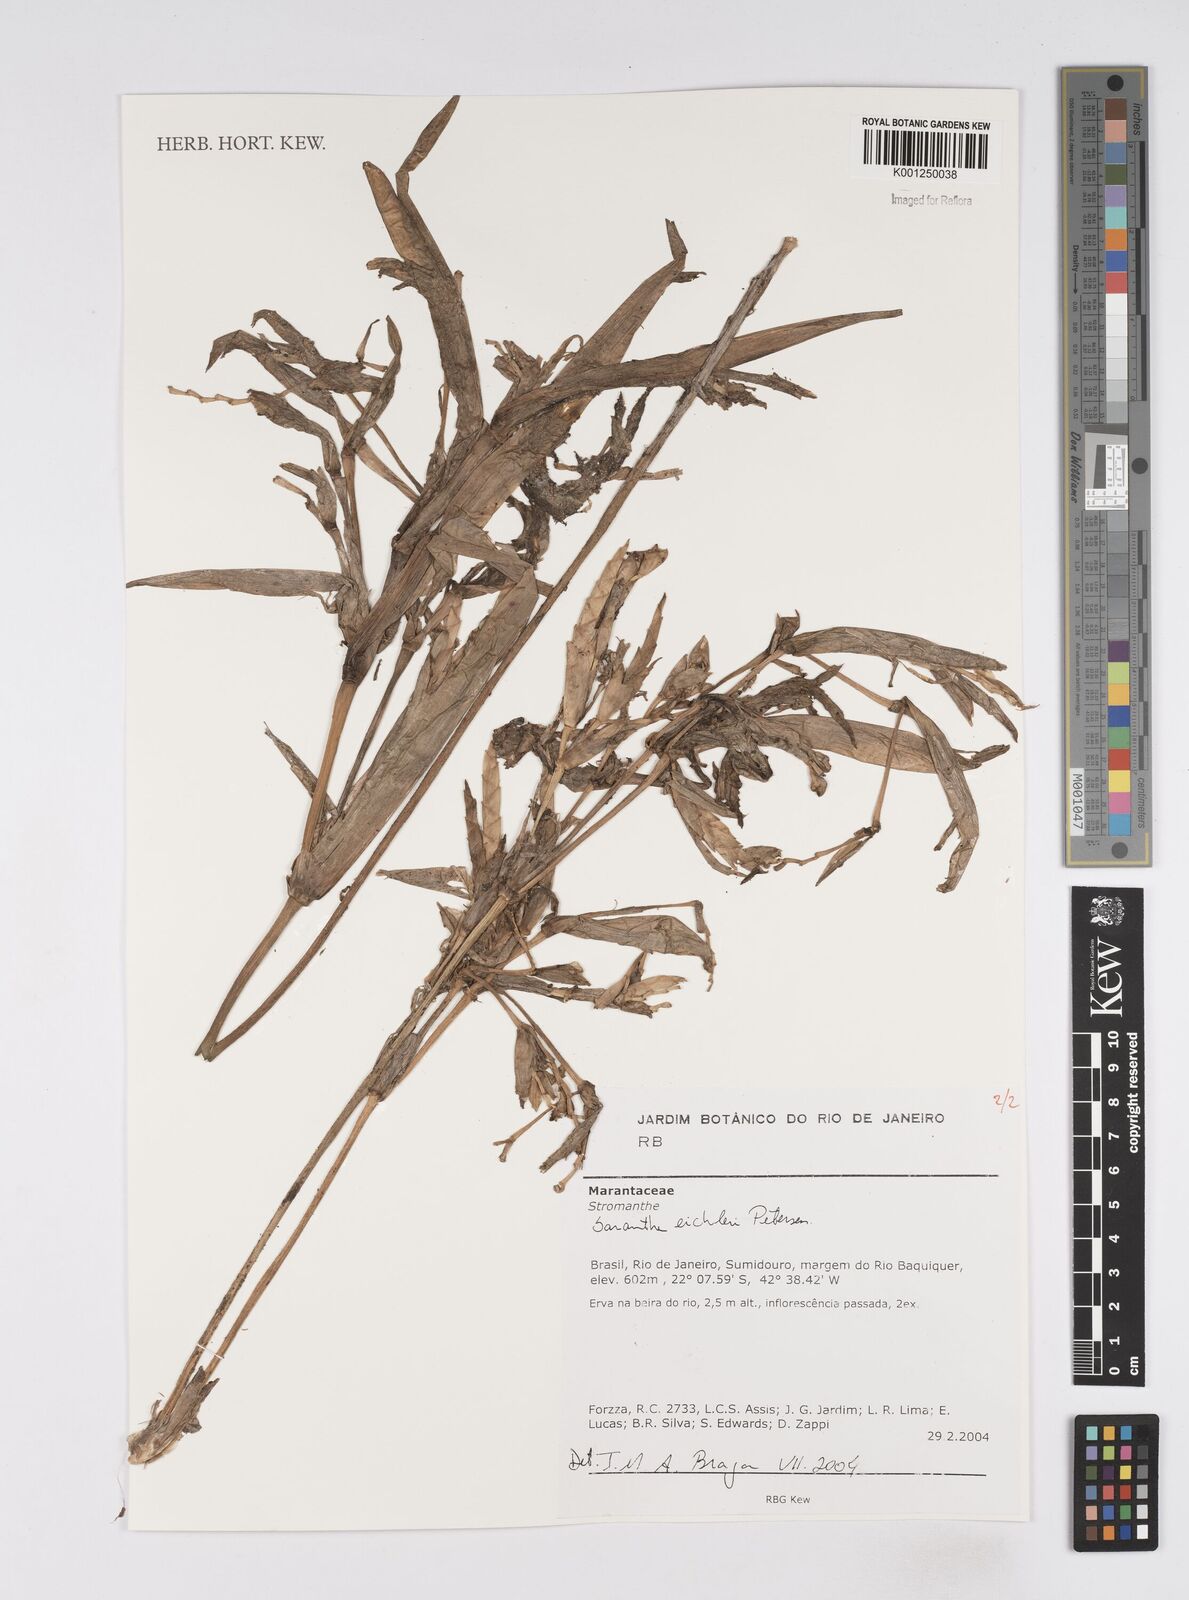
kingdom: Plantae
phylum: Tracheophyta
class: Liliopsida
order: Zingiberales
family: Marantaceae
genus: Saranthe
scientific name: Saranthe eichleri
